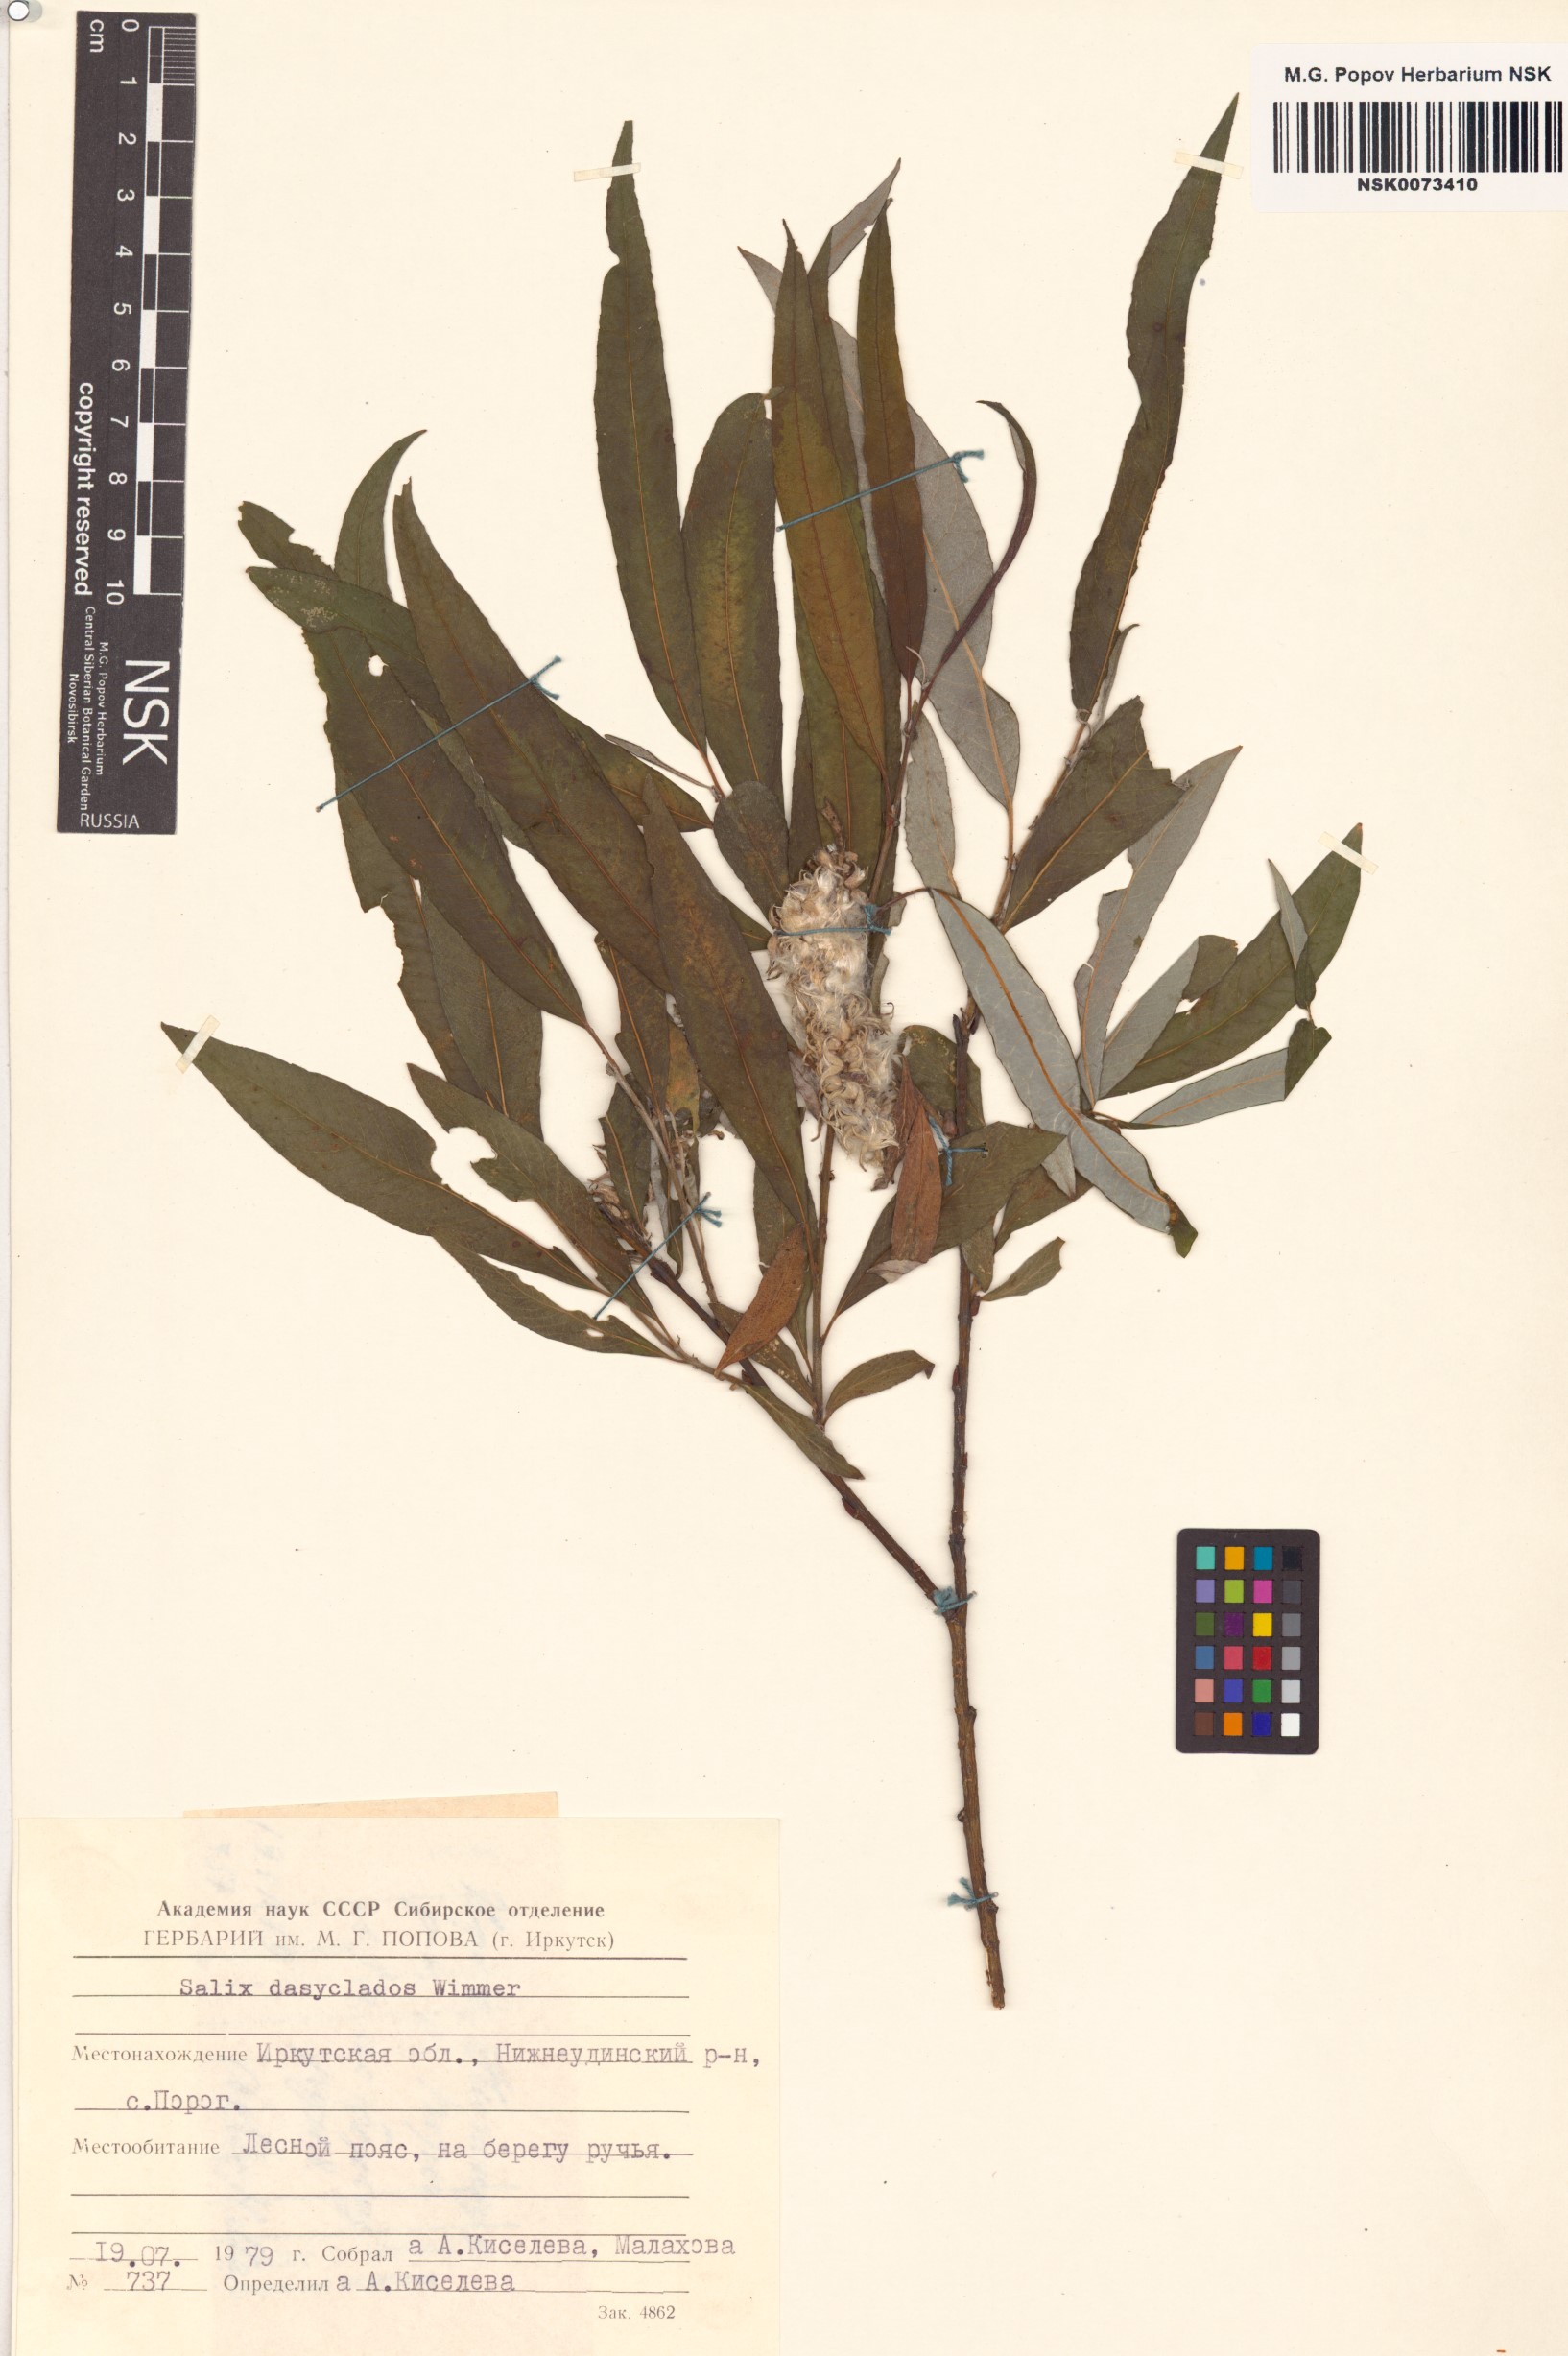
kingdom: Plantae
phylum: Tracheophyta
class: Magnoliopsida
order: Malpighiales
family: Salicaceae
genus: Salix
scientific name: Salix gmelinii
